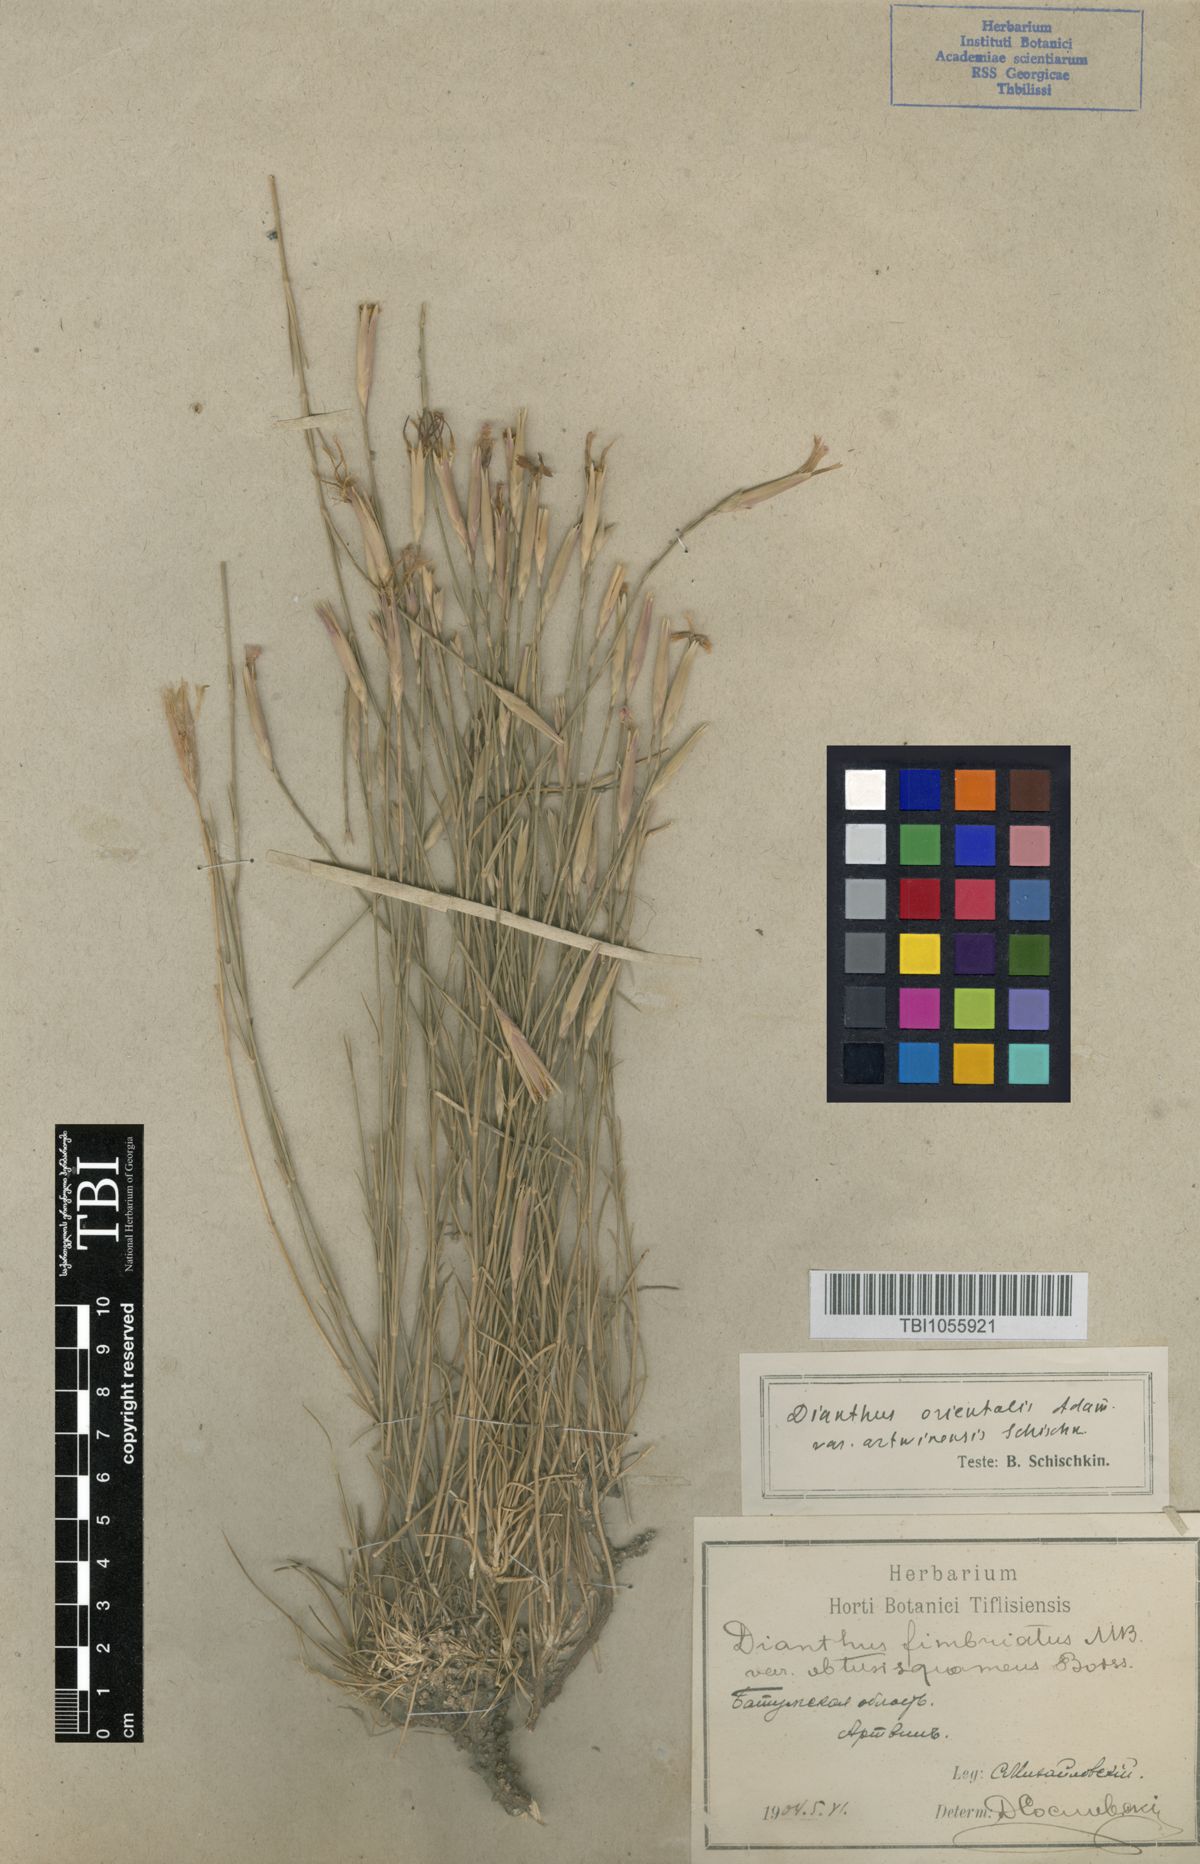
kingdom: Plantae
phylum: Tracheophyta
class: Magnoliopsida
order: Caryophyllales
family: Caryophyllaceae
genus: Dianthus
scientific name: Dianthus orientalis
